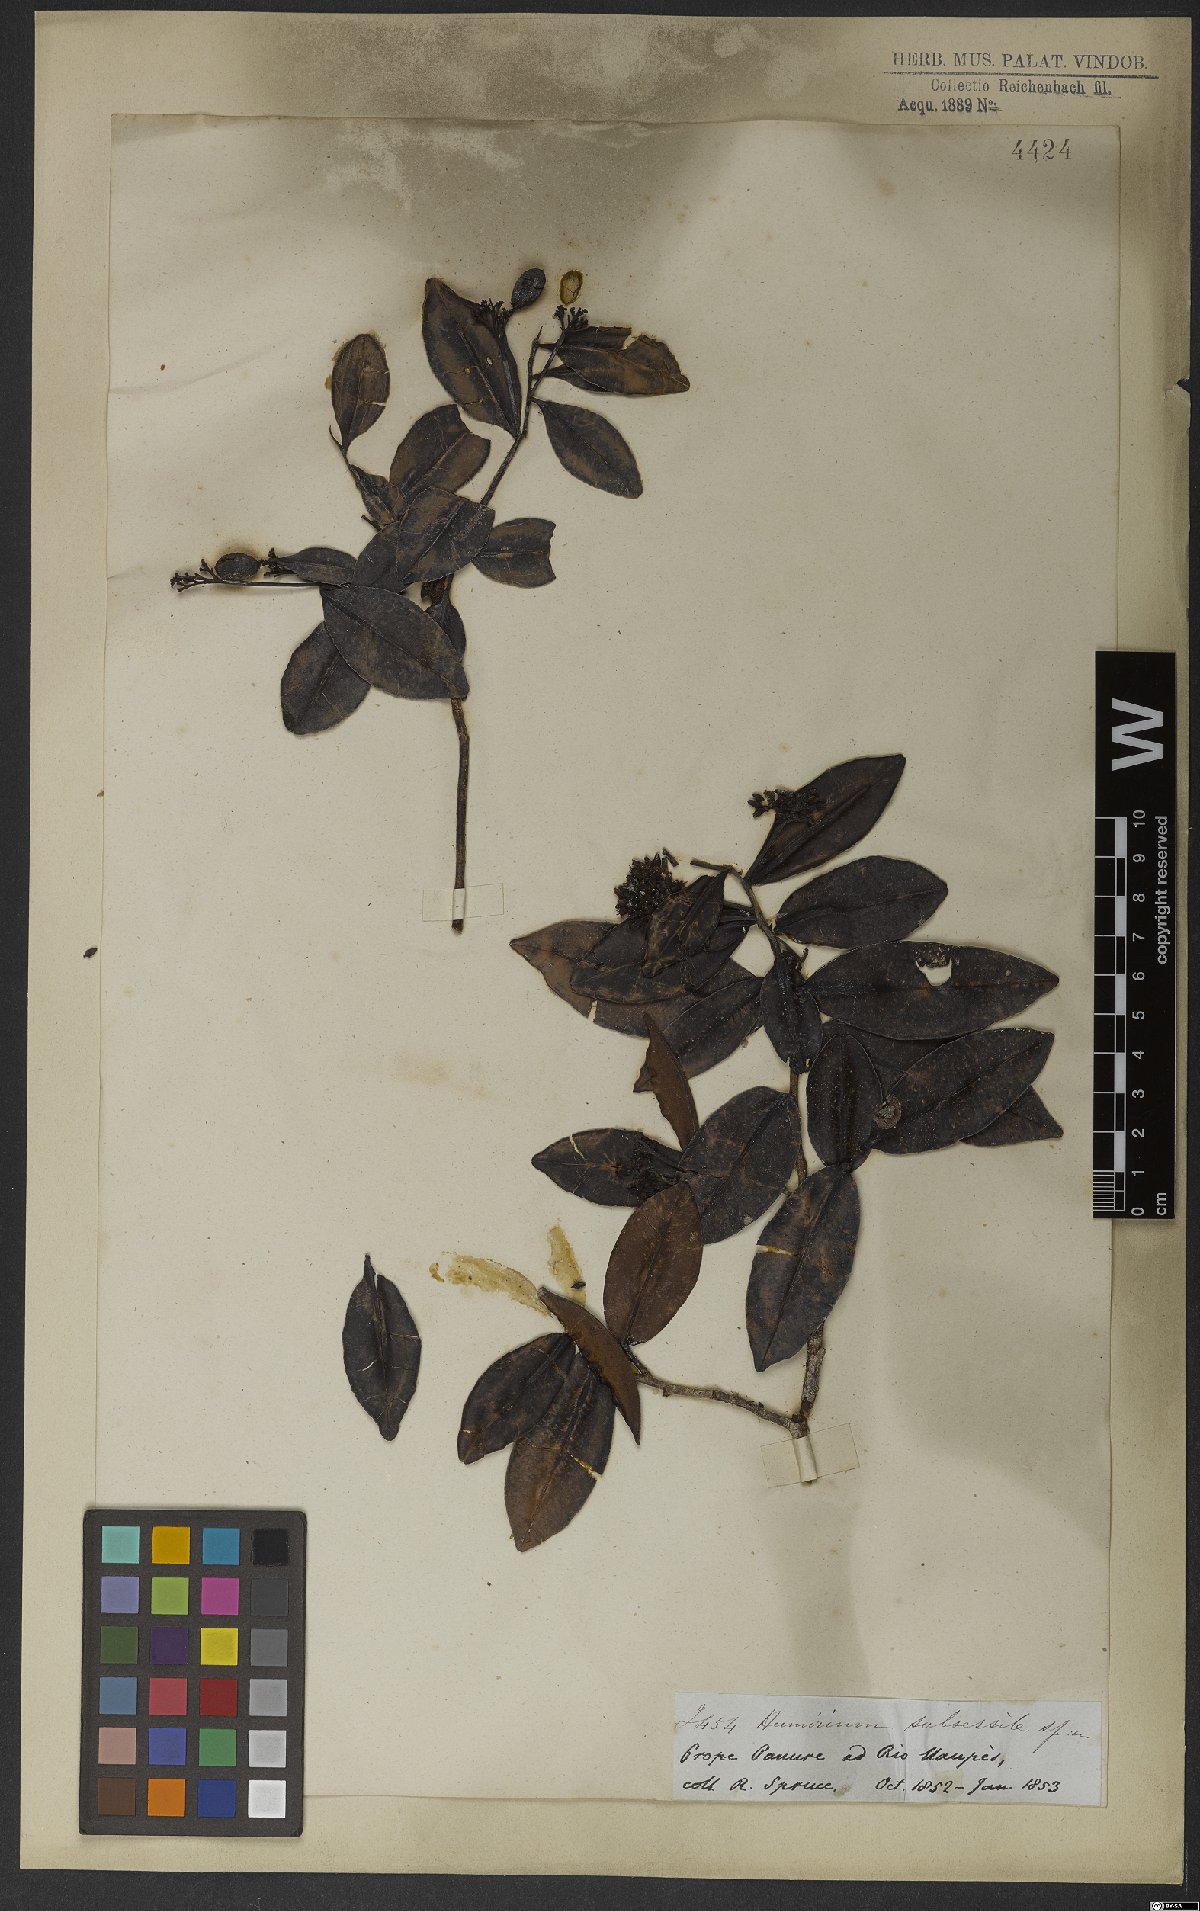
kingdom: Plantae
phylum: Tracheophyta
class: Magnoliopsida
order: Malpighiales
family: Humiriaceae
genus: Humiria
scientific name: Humiria balsamifera
